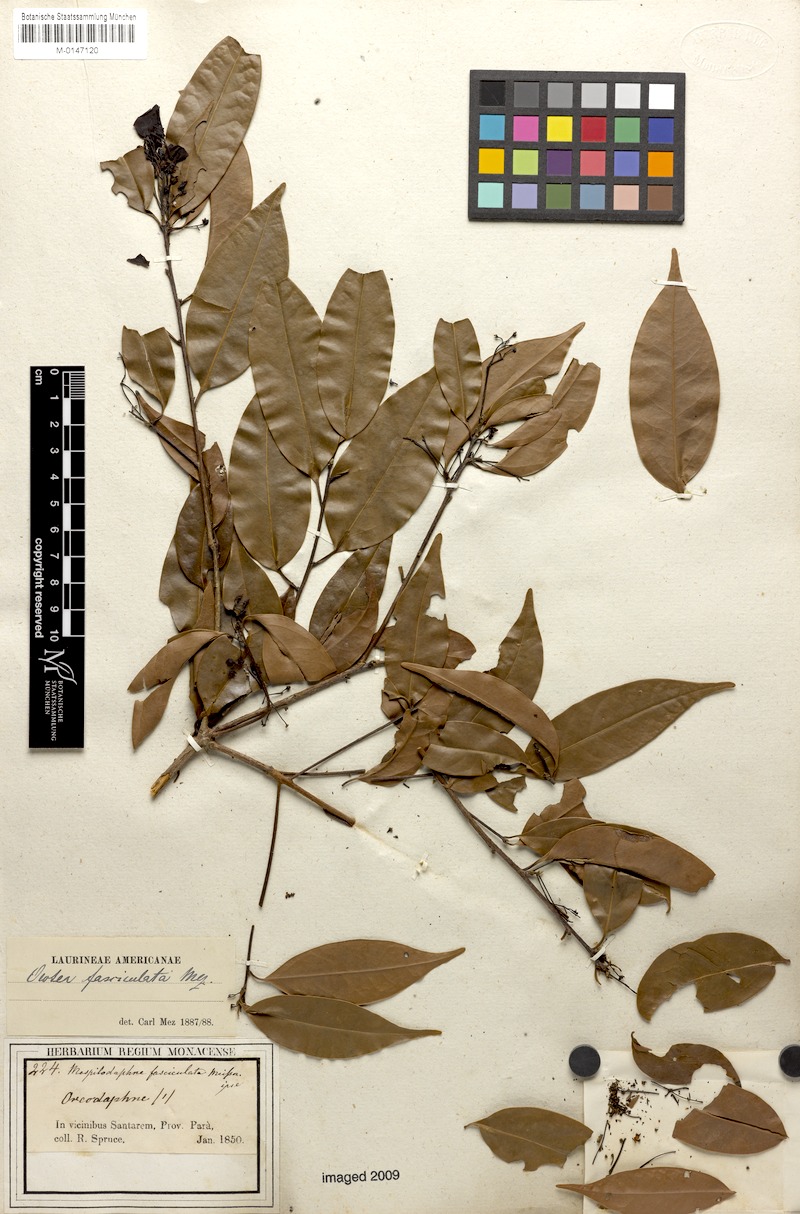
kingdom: Plantae
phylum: Tracheophyta
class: Magnoliopsida
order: Laurales
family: Lauraceae
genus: Mespilodaphne
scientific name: Mespilodaphne fasciculata
